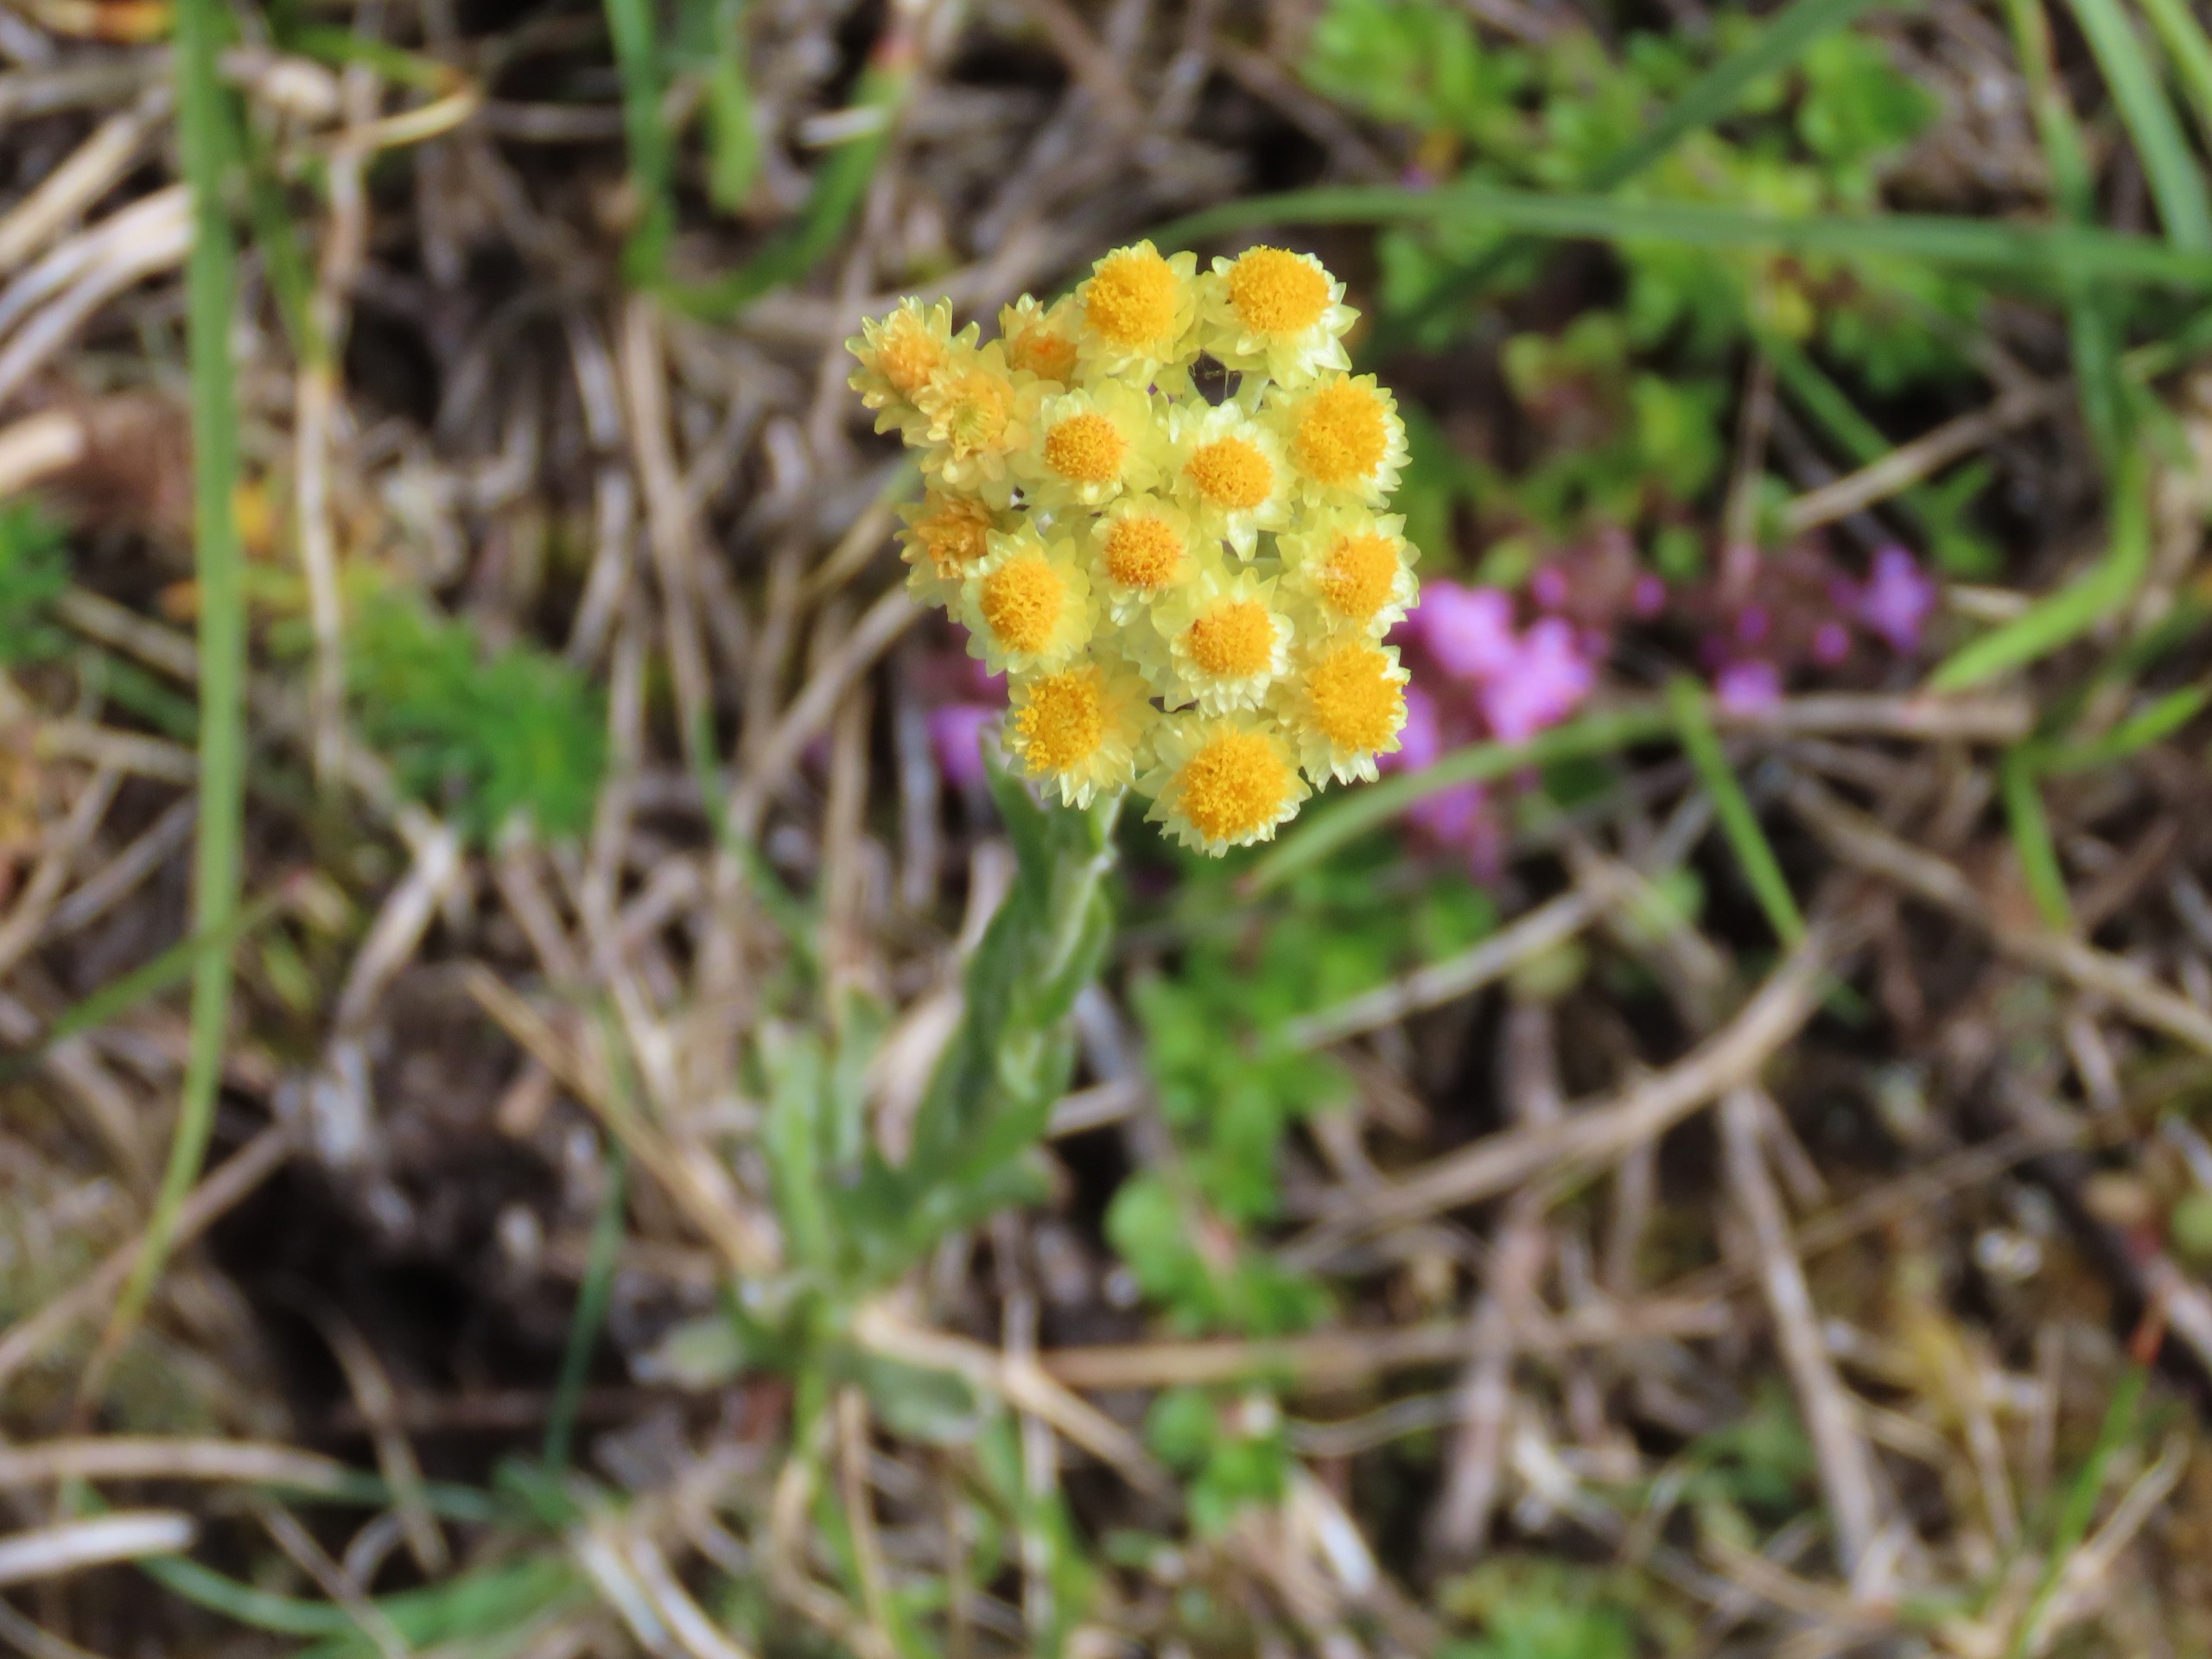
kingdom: Plantae
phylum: Tracheophyta
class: Magnoliopsida
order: Asterales
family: Asteraceae
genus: Helichrysum
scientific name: Helichrysum arenarium
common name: Gul evighedsblomst
